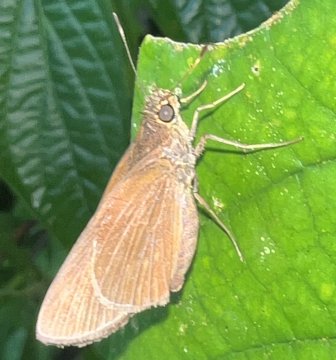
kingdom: Animalia
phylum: Arthropoda
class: Insecta
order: Lepidoptera
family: Hesperiidae
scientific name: Hesperiidae
